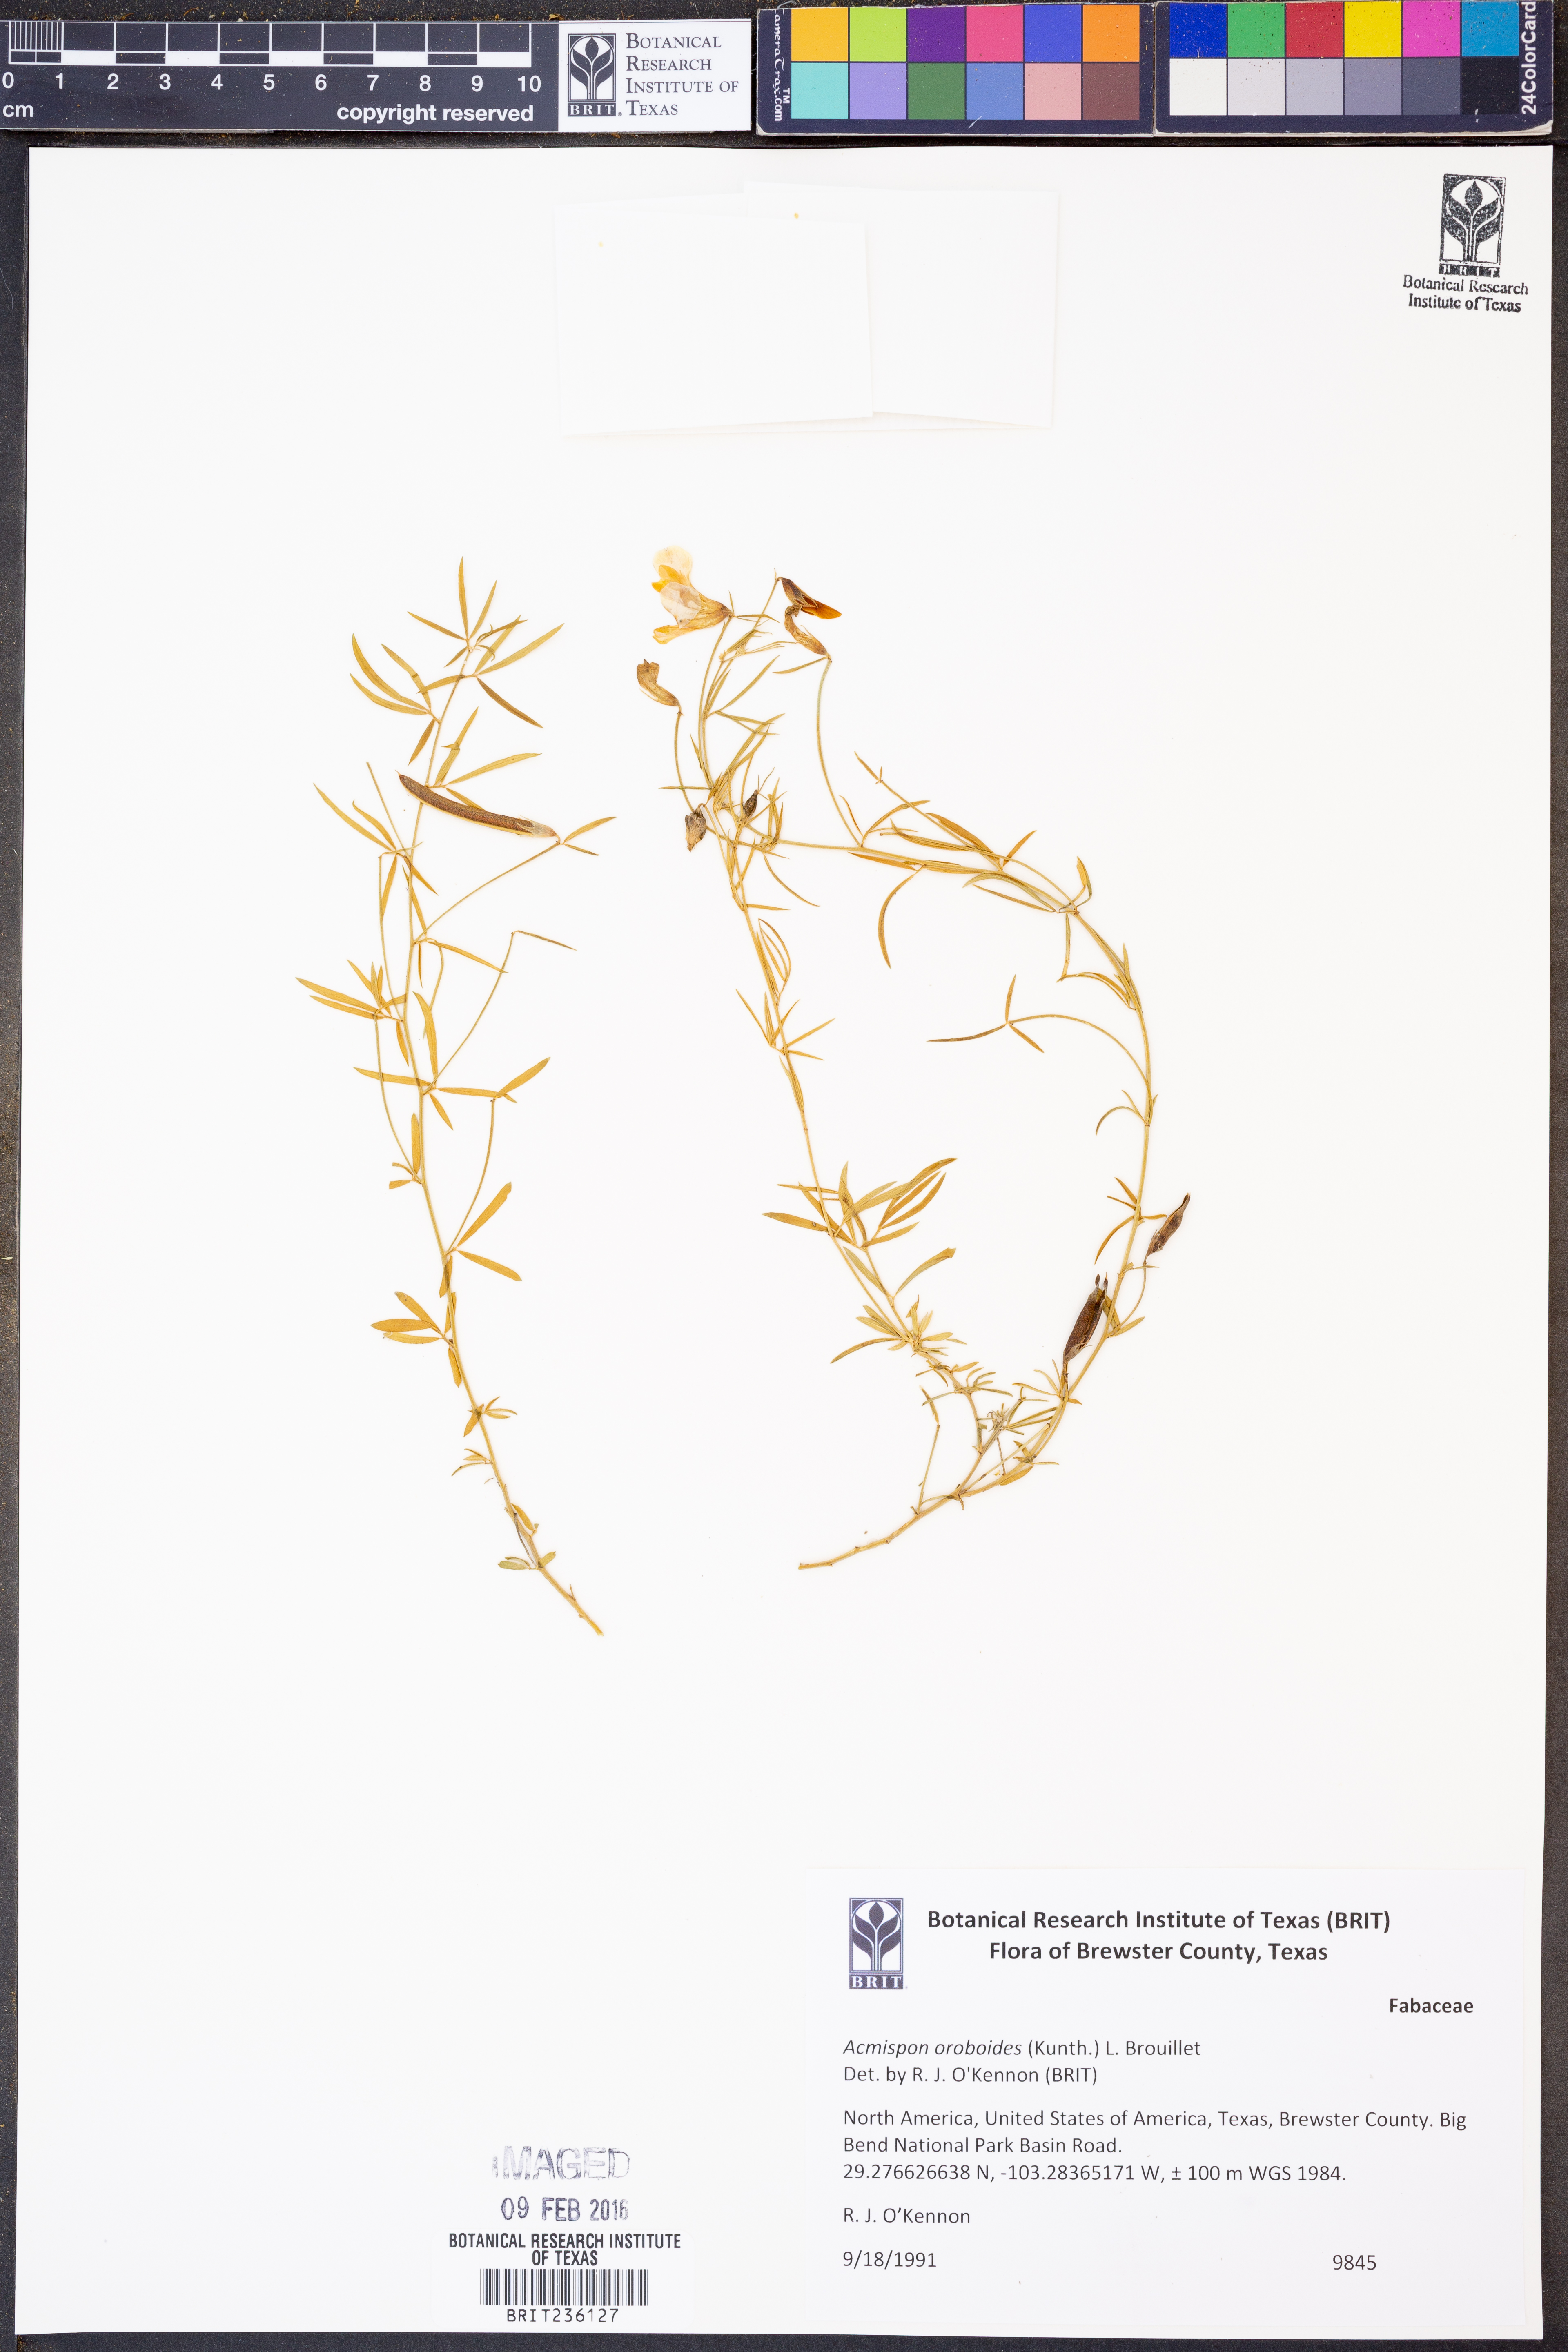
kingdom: Plantae
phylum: Tracheophyta
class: Magnoliopsida
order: Fabales
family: Fabaceae
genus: Acmispon
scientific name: Acmispon oroboides
